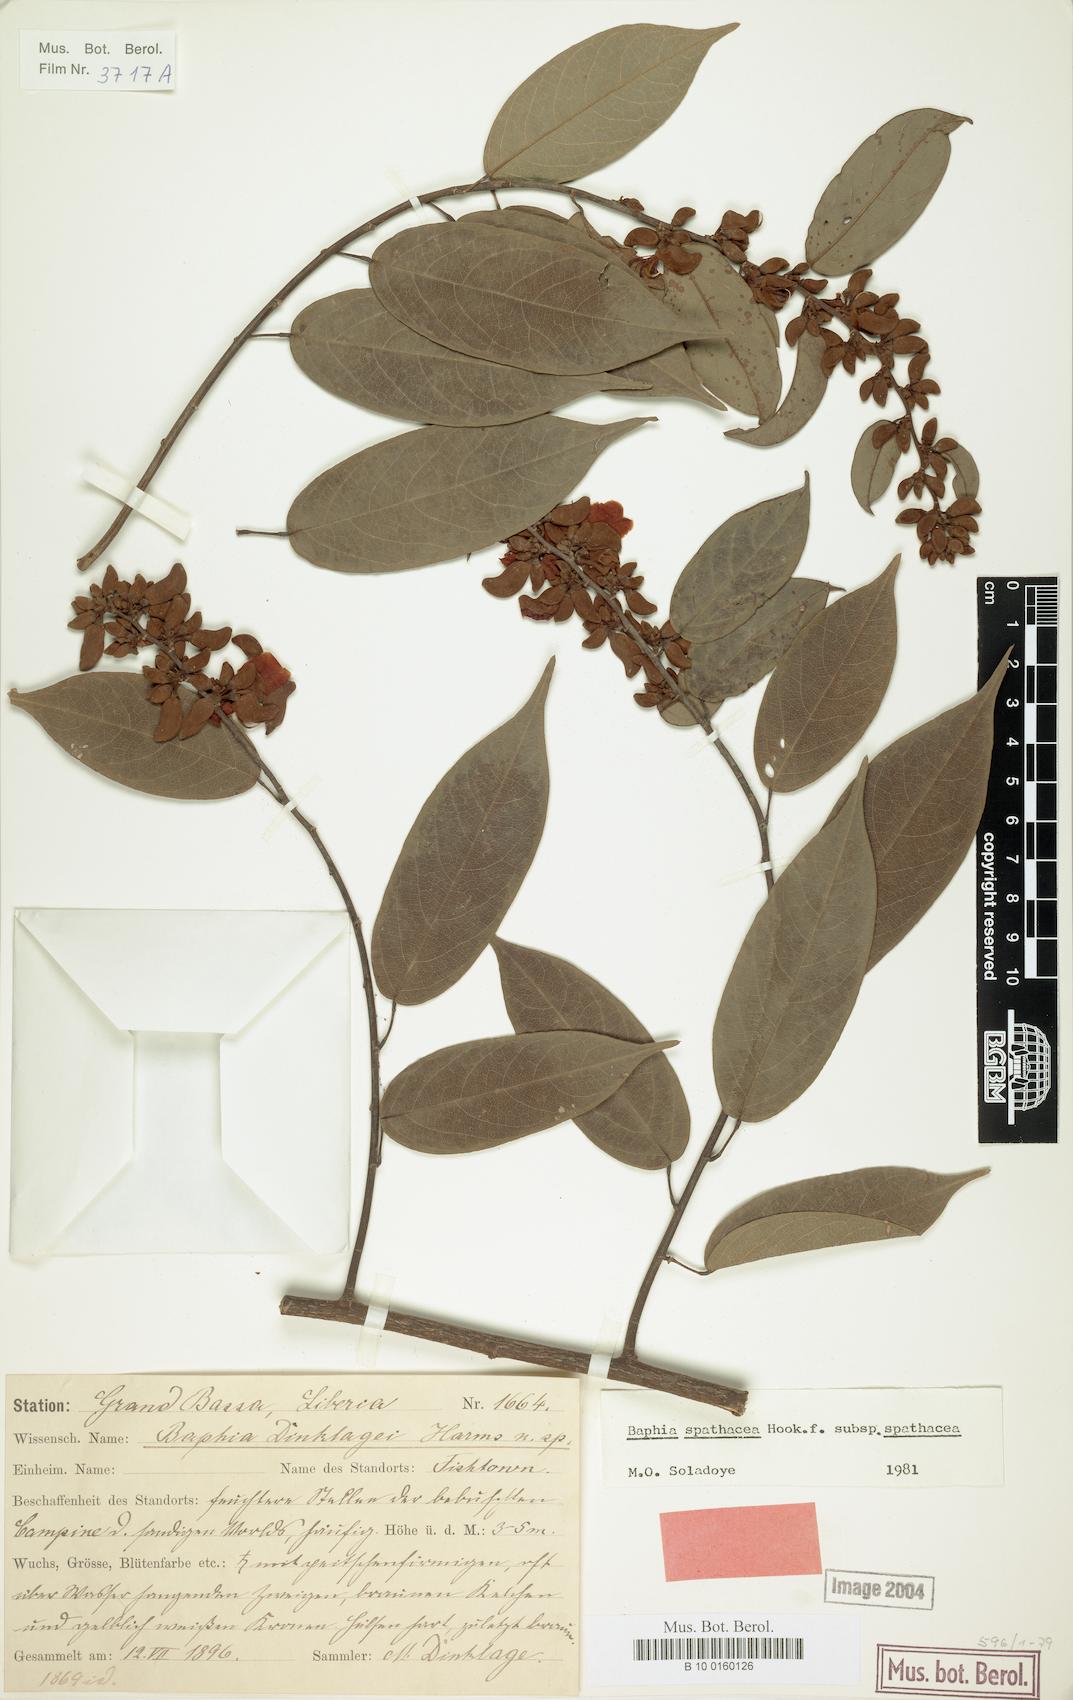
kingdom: Plantae
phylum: Tracheophyta
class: Magnoliopsida
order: Fabales
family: Fabaceae
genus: Baphia
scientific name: Baphia spathacea
